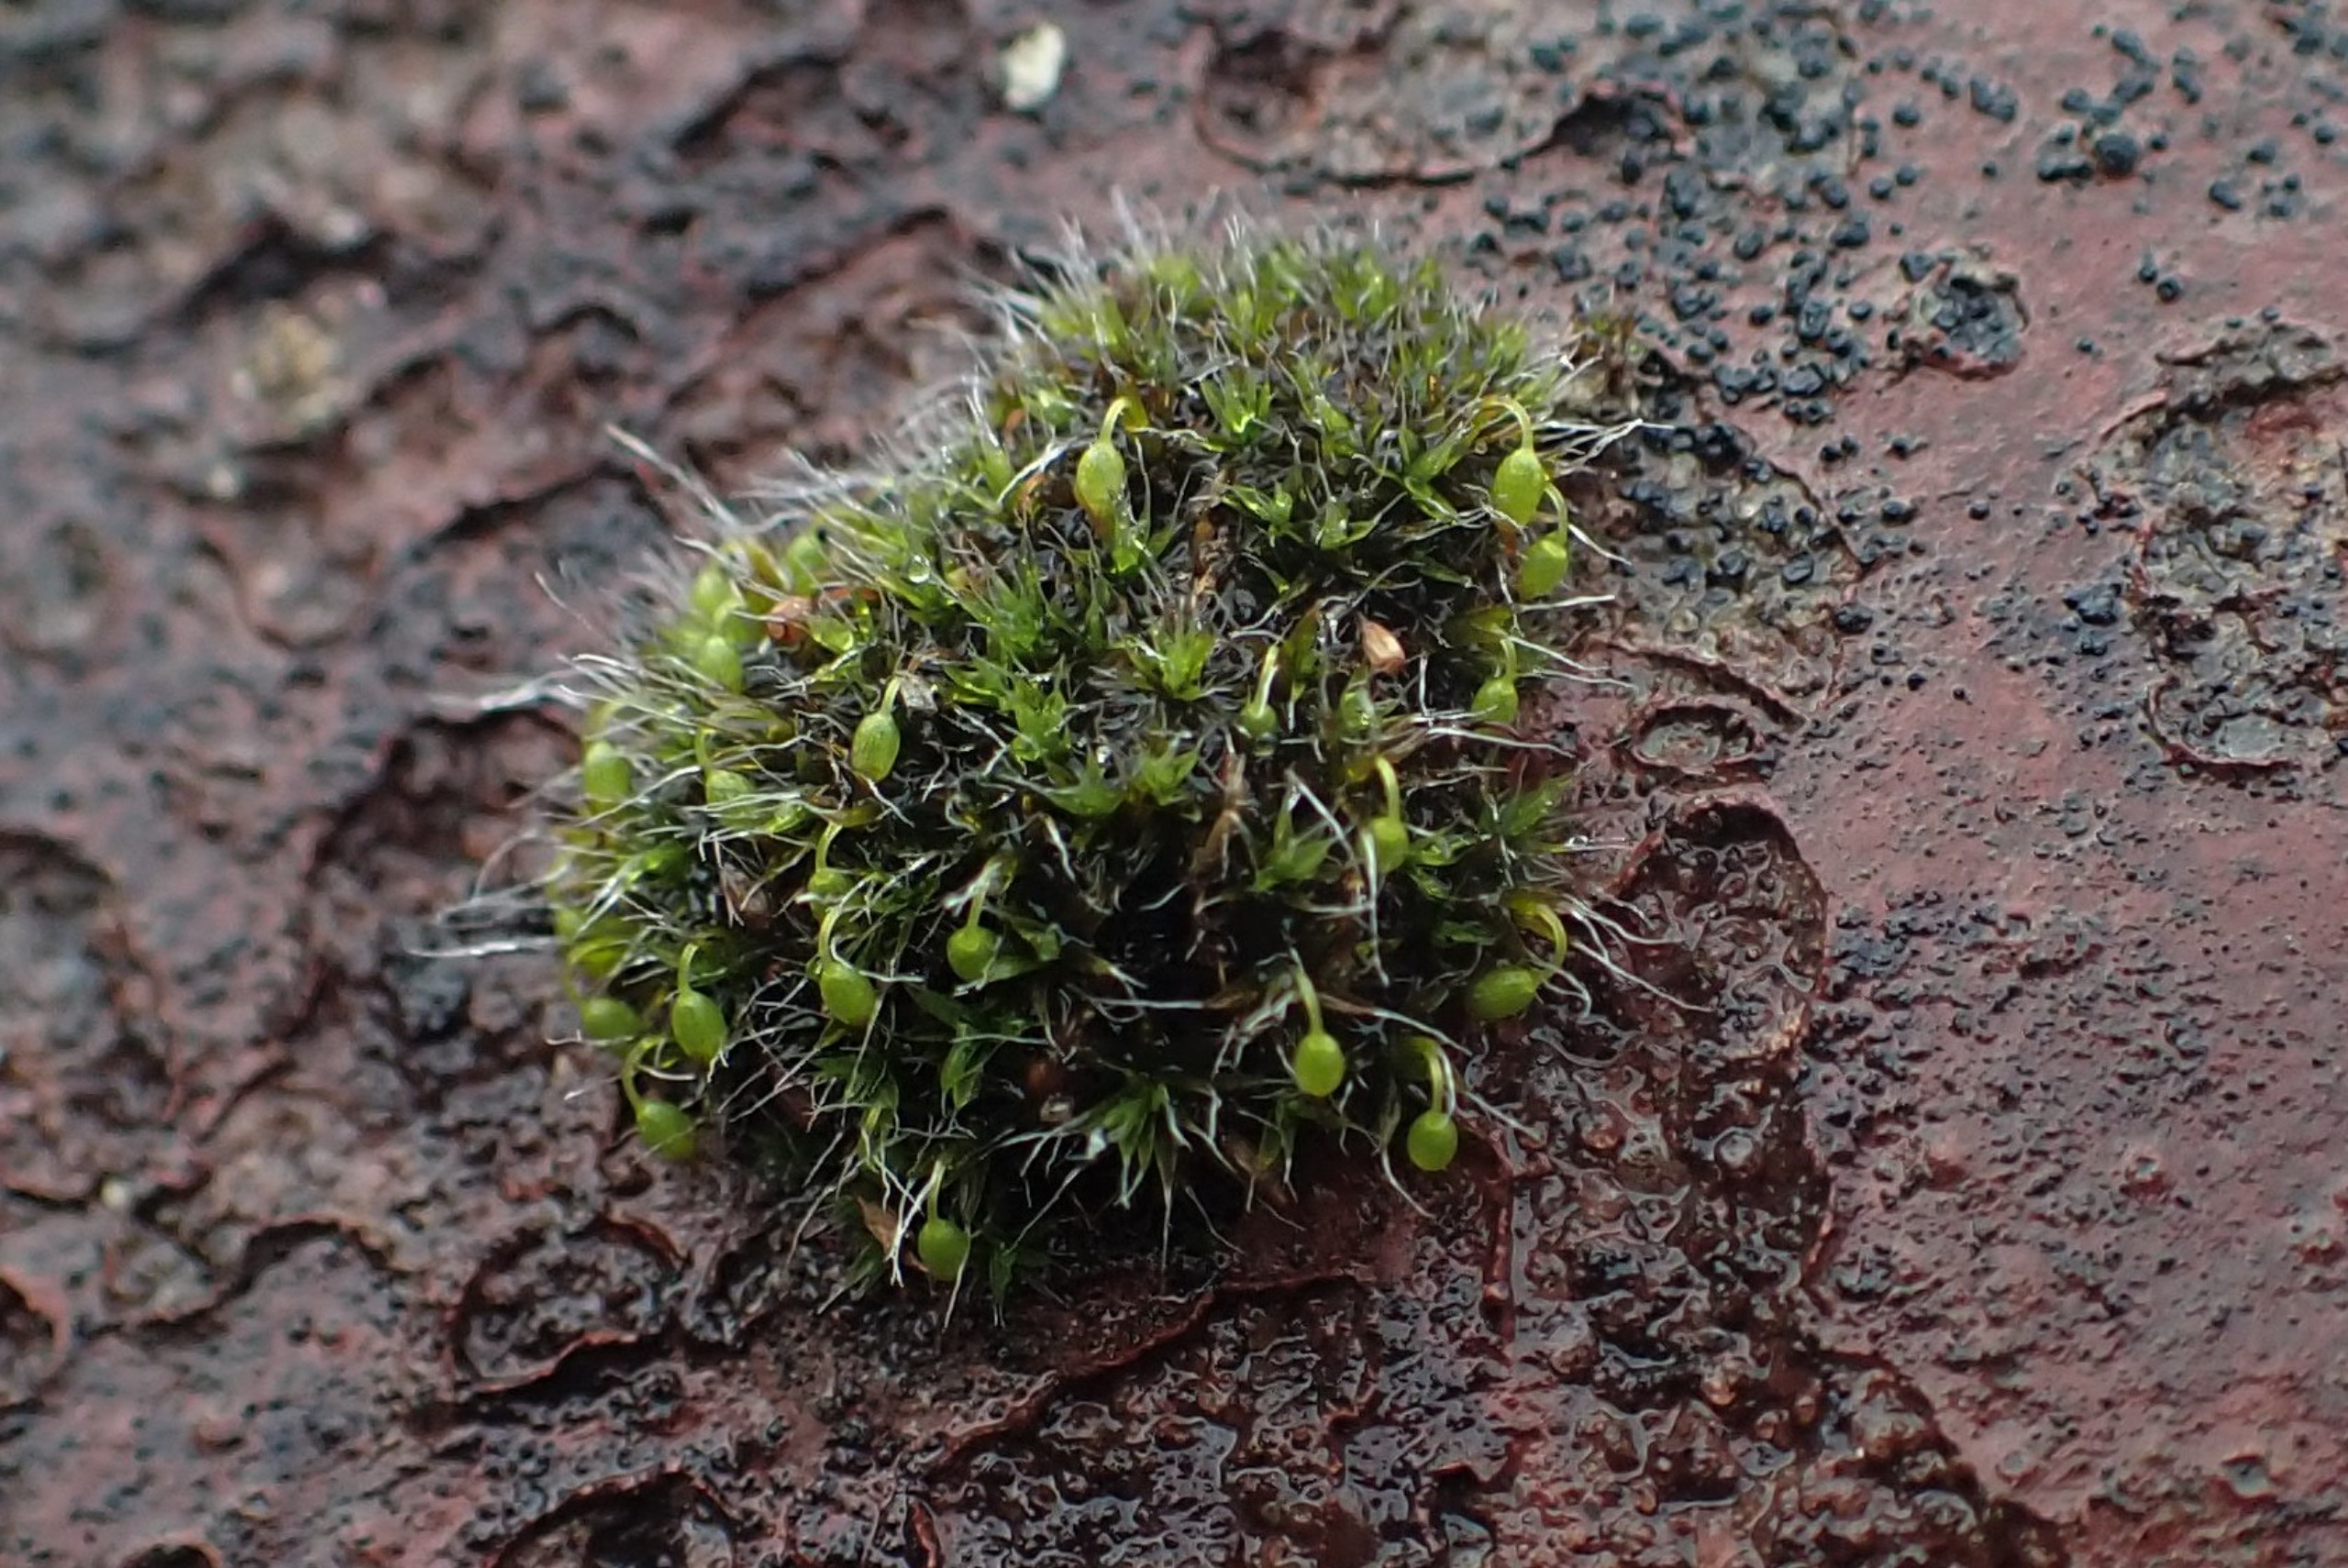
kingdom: Plantae
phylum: Bryophyta
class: Bryopsida
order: Grimmiales
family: Grimmiaceae
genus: Grimmia
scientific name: Grimmia pulvinata
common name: Pude-gråmos
